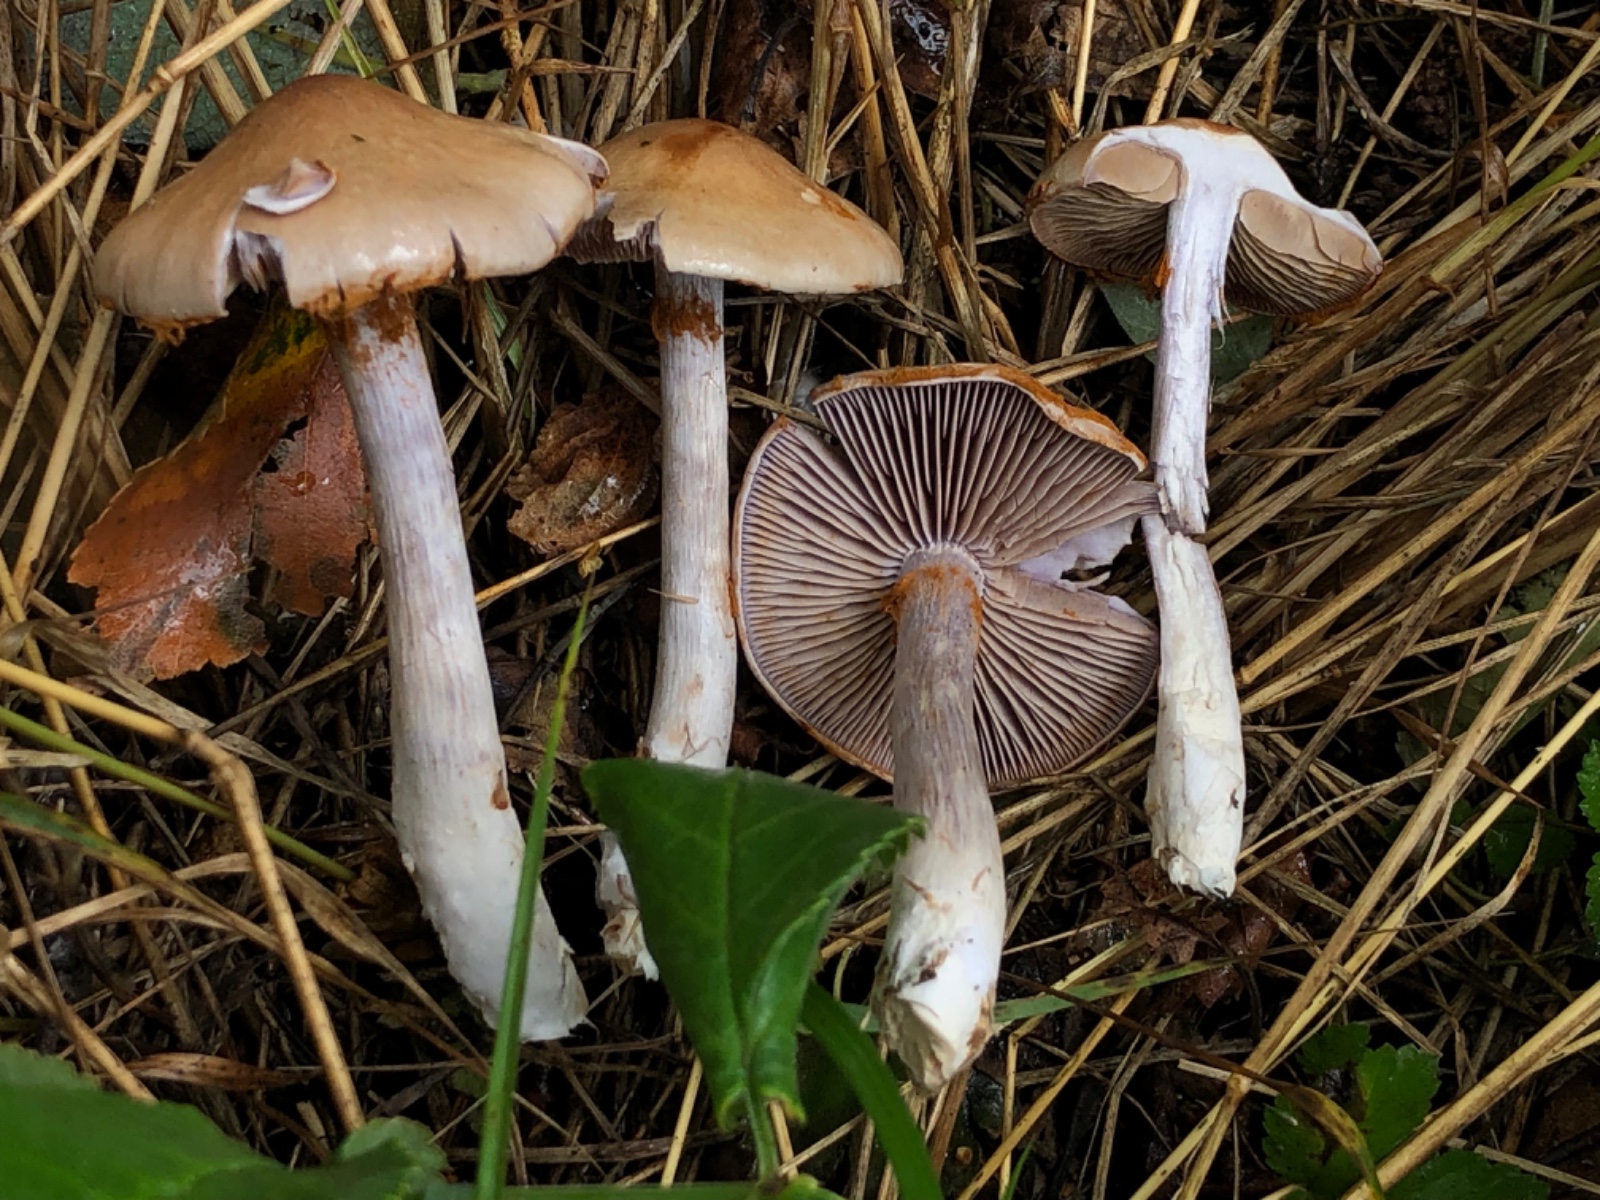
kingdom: Fungi
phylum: Basidiomycota
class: Agaricomycetes
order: Agaricales
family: Cortinariaceae
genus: Cortinarius
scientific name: Cortinarius
